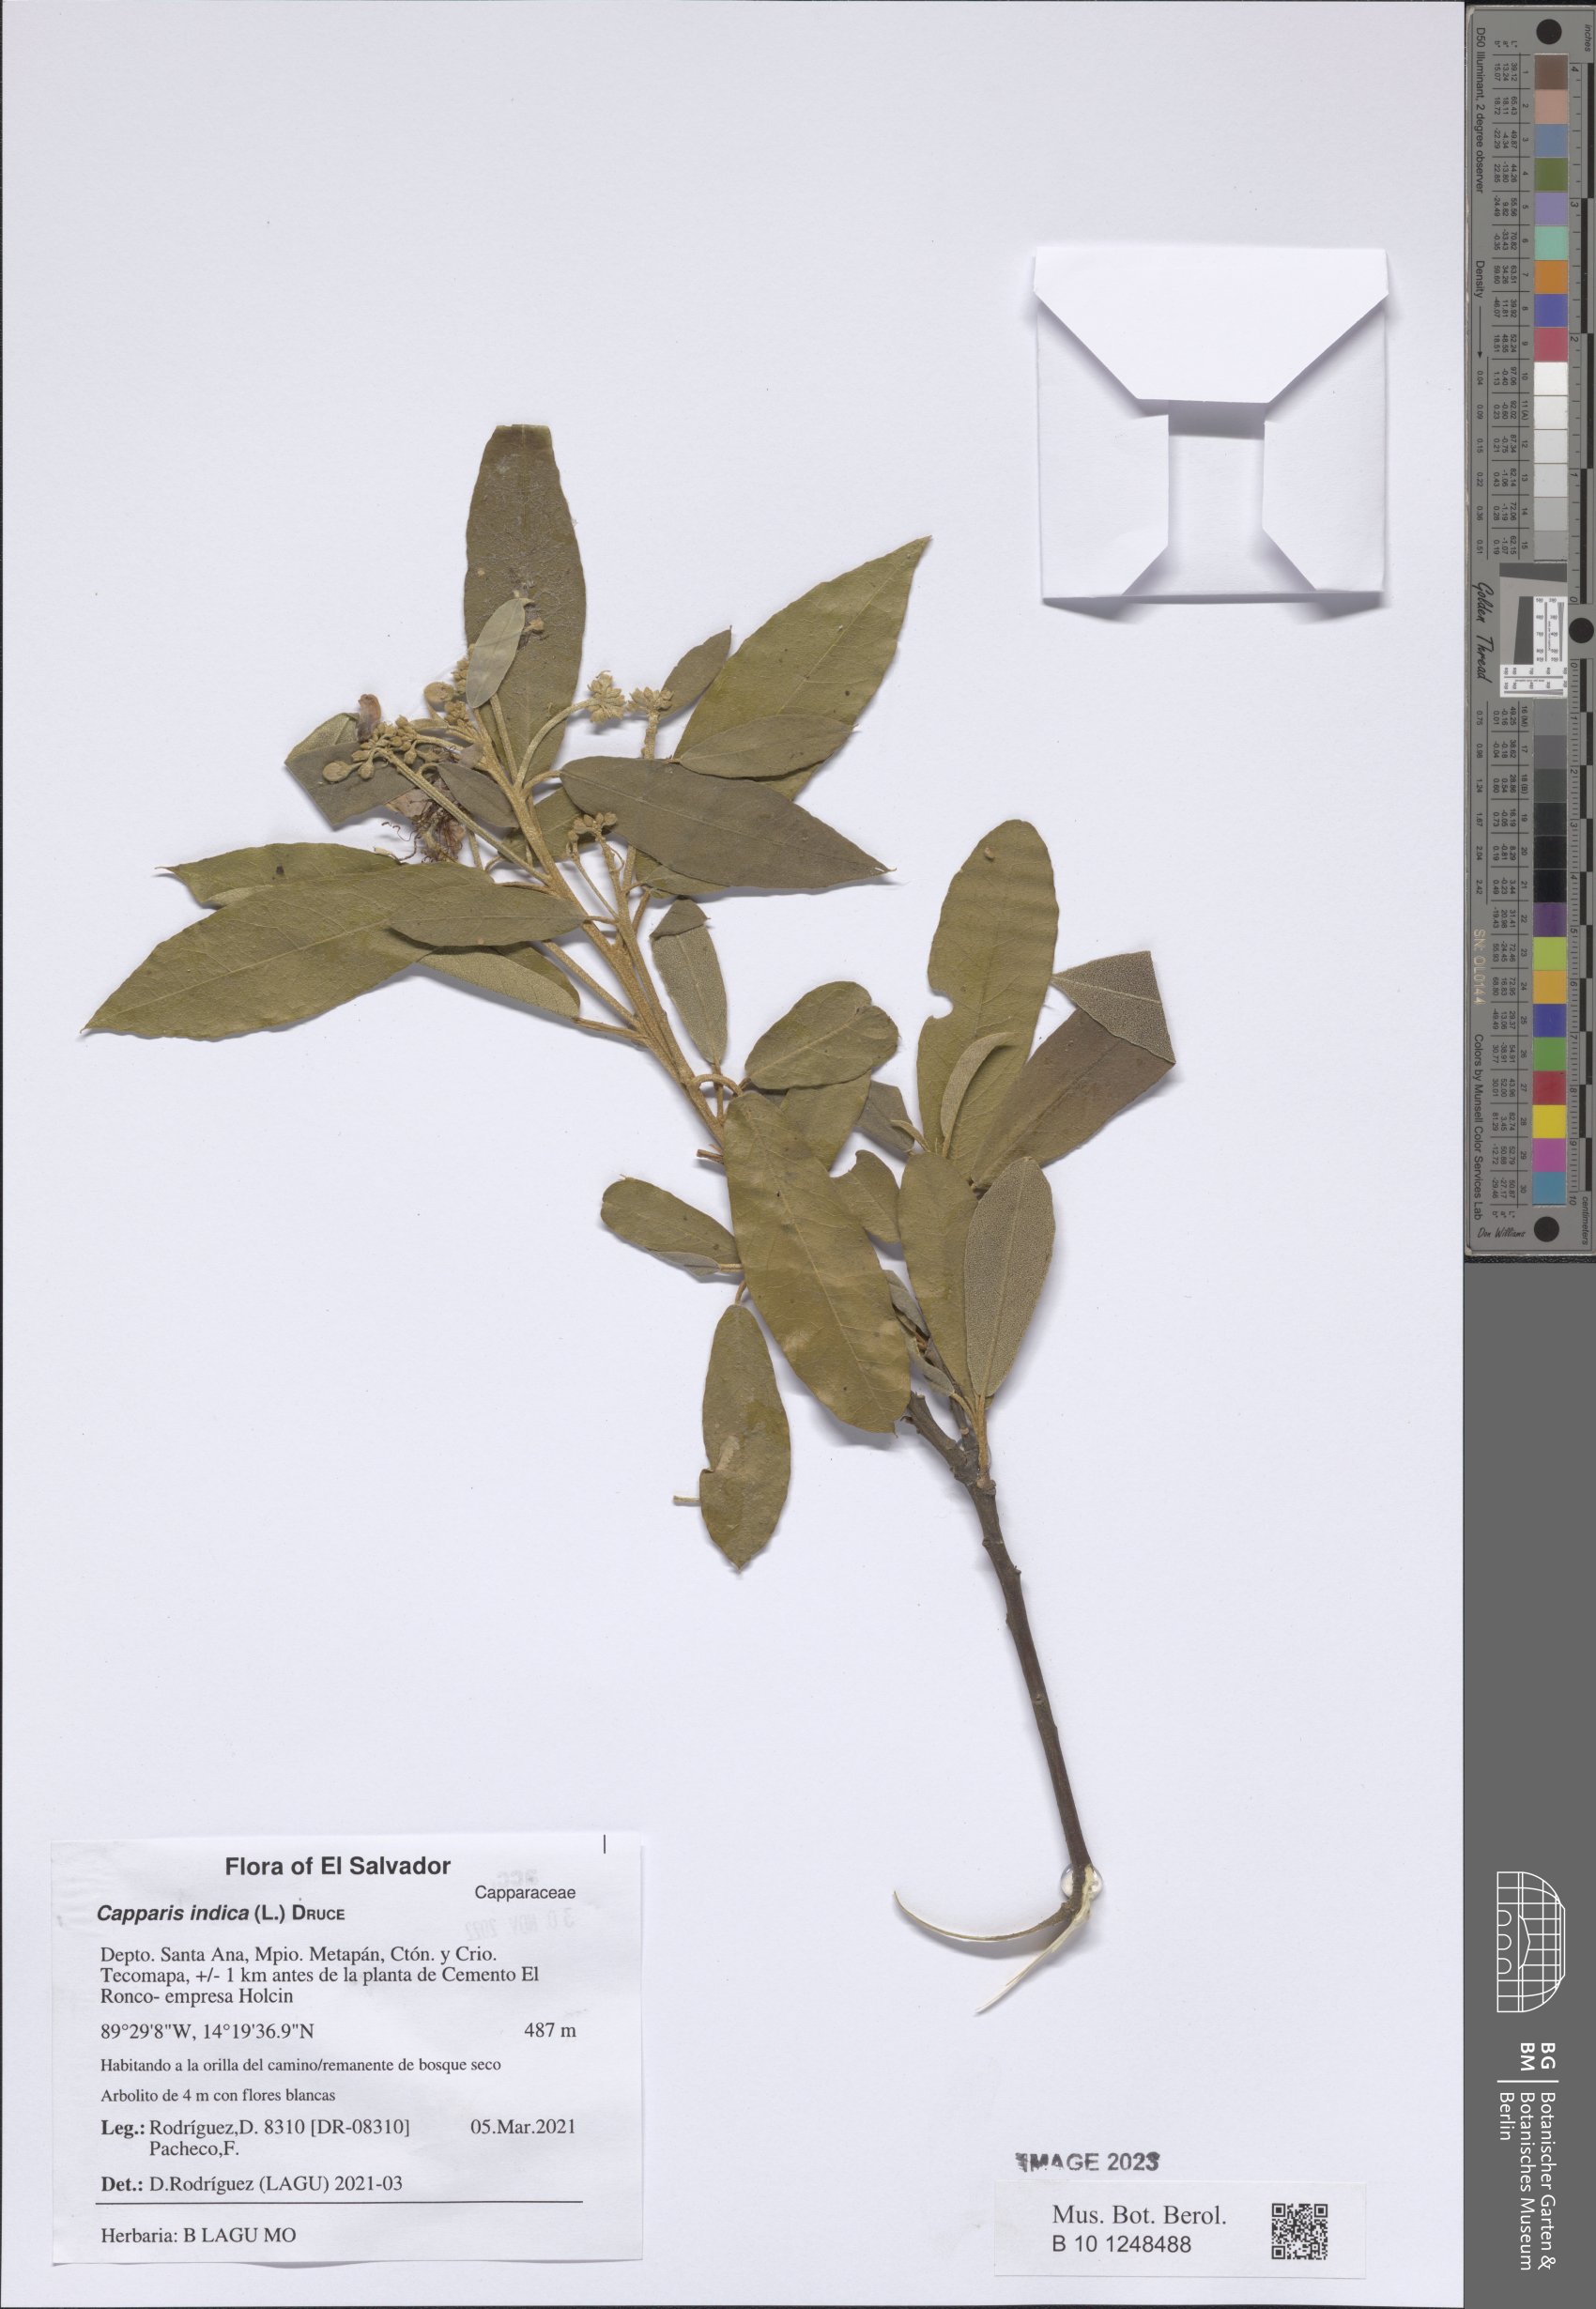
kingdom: Plantae
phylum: Tracheophyta
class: Magnoliopsida
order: Brassicales
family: Capparaceae
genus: Quadrella
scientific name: Quadrella indica
